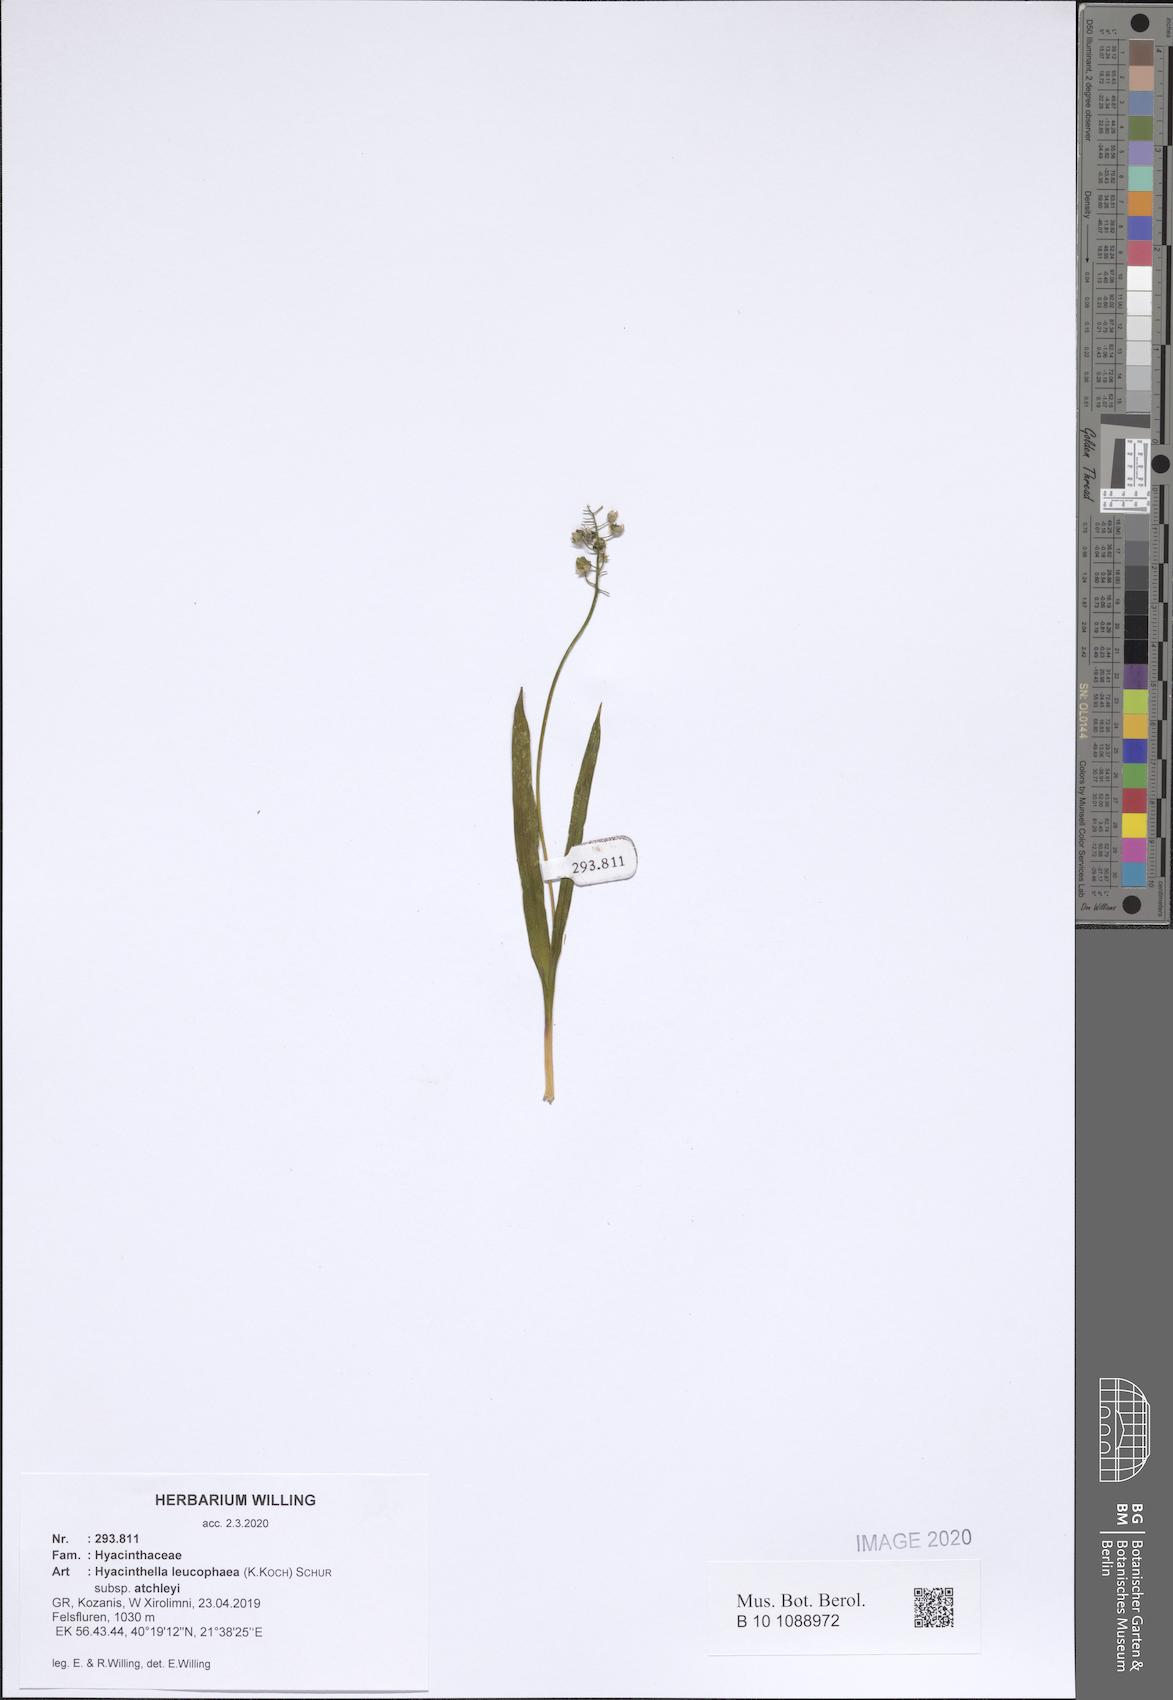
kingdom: Plantae
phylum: Tracheophyta
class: Liliopsida
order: Asparagales
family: Asparagaceae
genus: Hyacinthella
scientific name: Hyacinthella leucophaea
